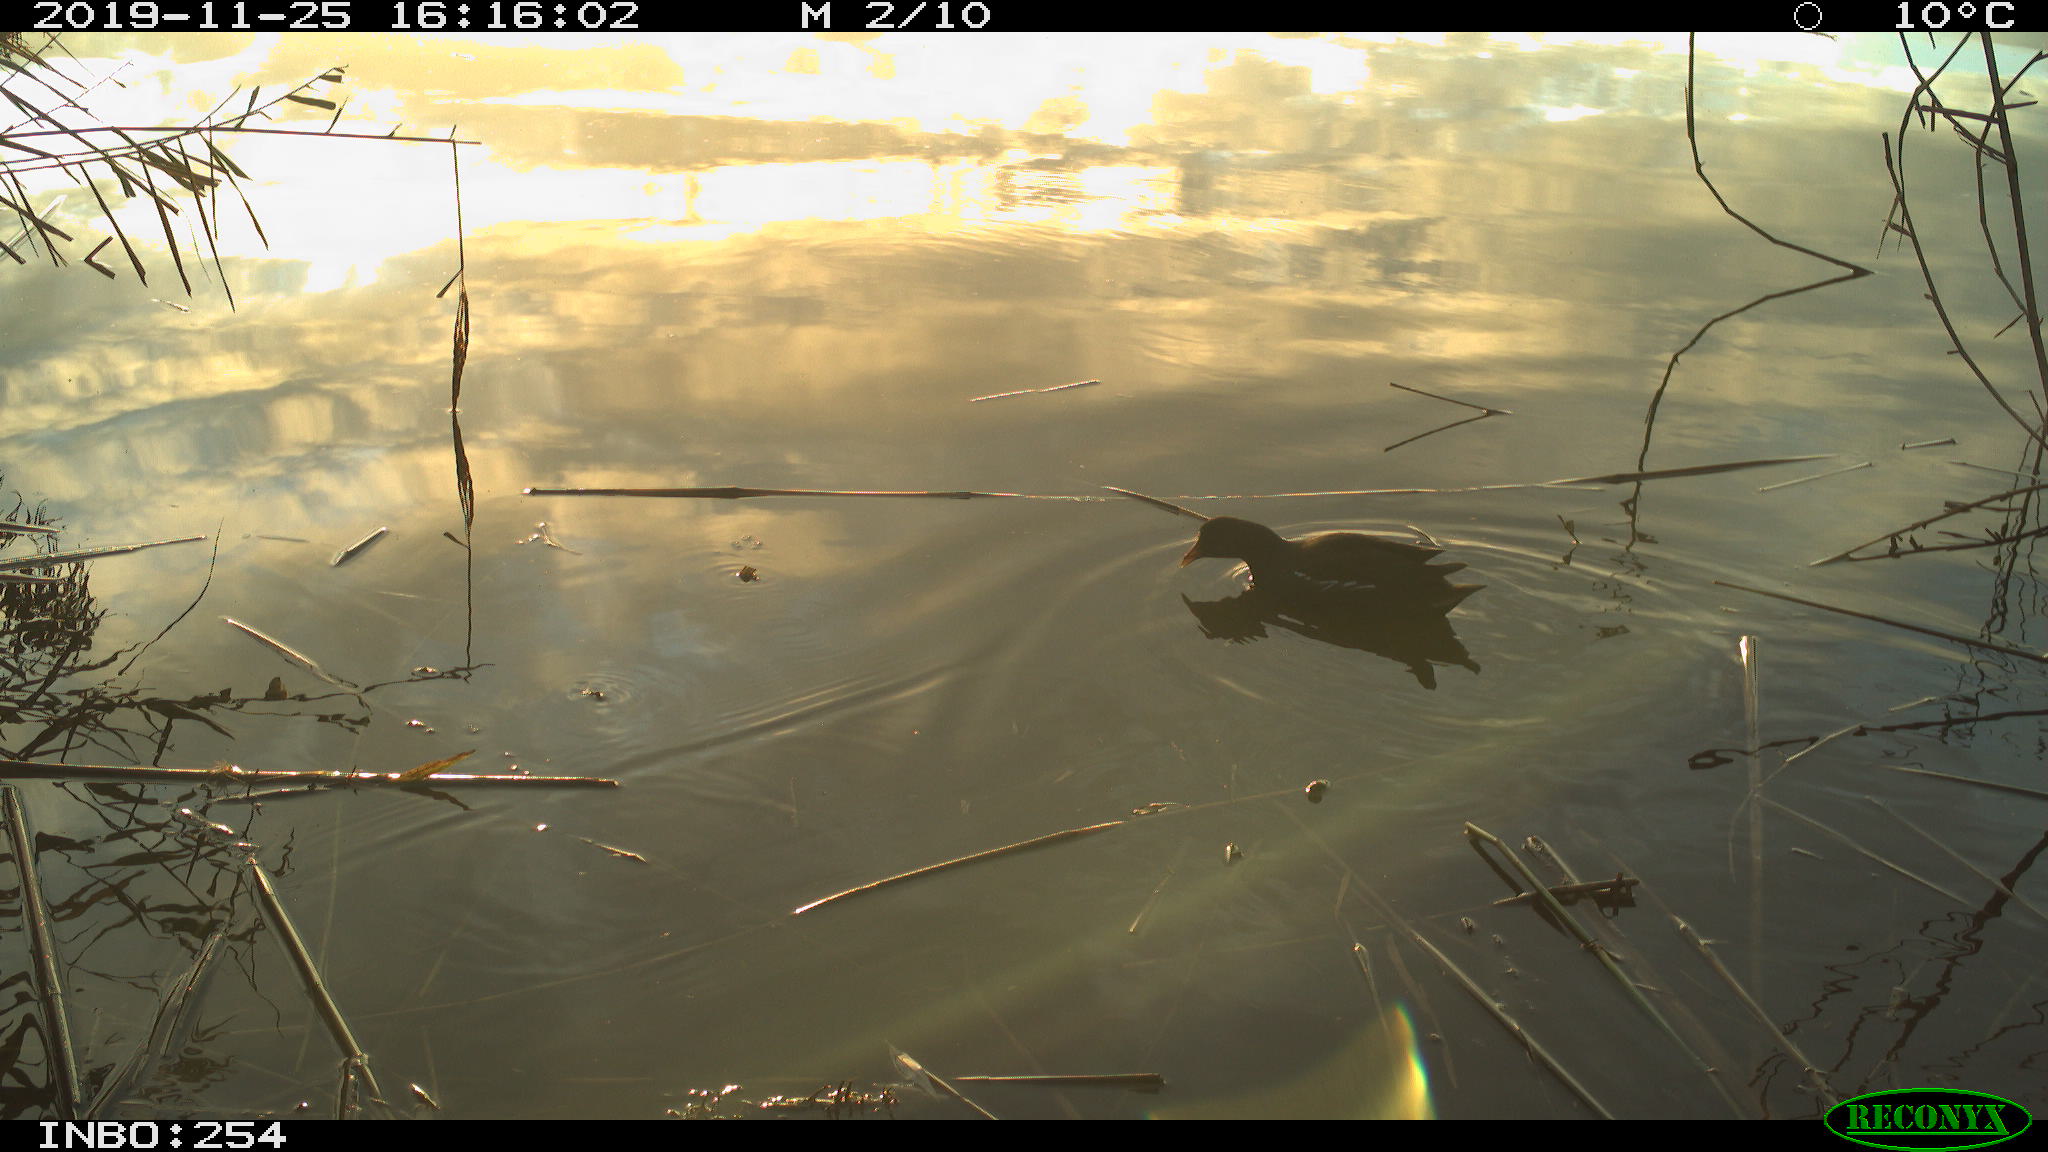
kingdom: Animalia
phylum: Chordata
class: Aves
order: Gruiformes
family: Rallidae
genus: Gallinula
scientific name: Gallinula chloropus
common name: Common moorhen
